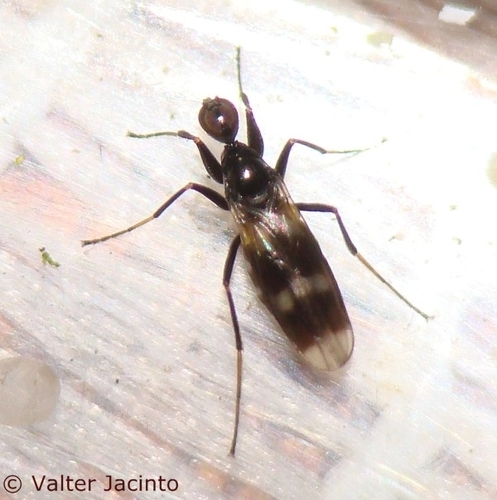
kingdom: Animalia
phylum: Arthropoda
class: Insecta
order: Diptera
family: Hybotidae
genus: Tachydromia
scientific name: Tachydromia arrogans
